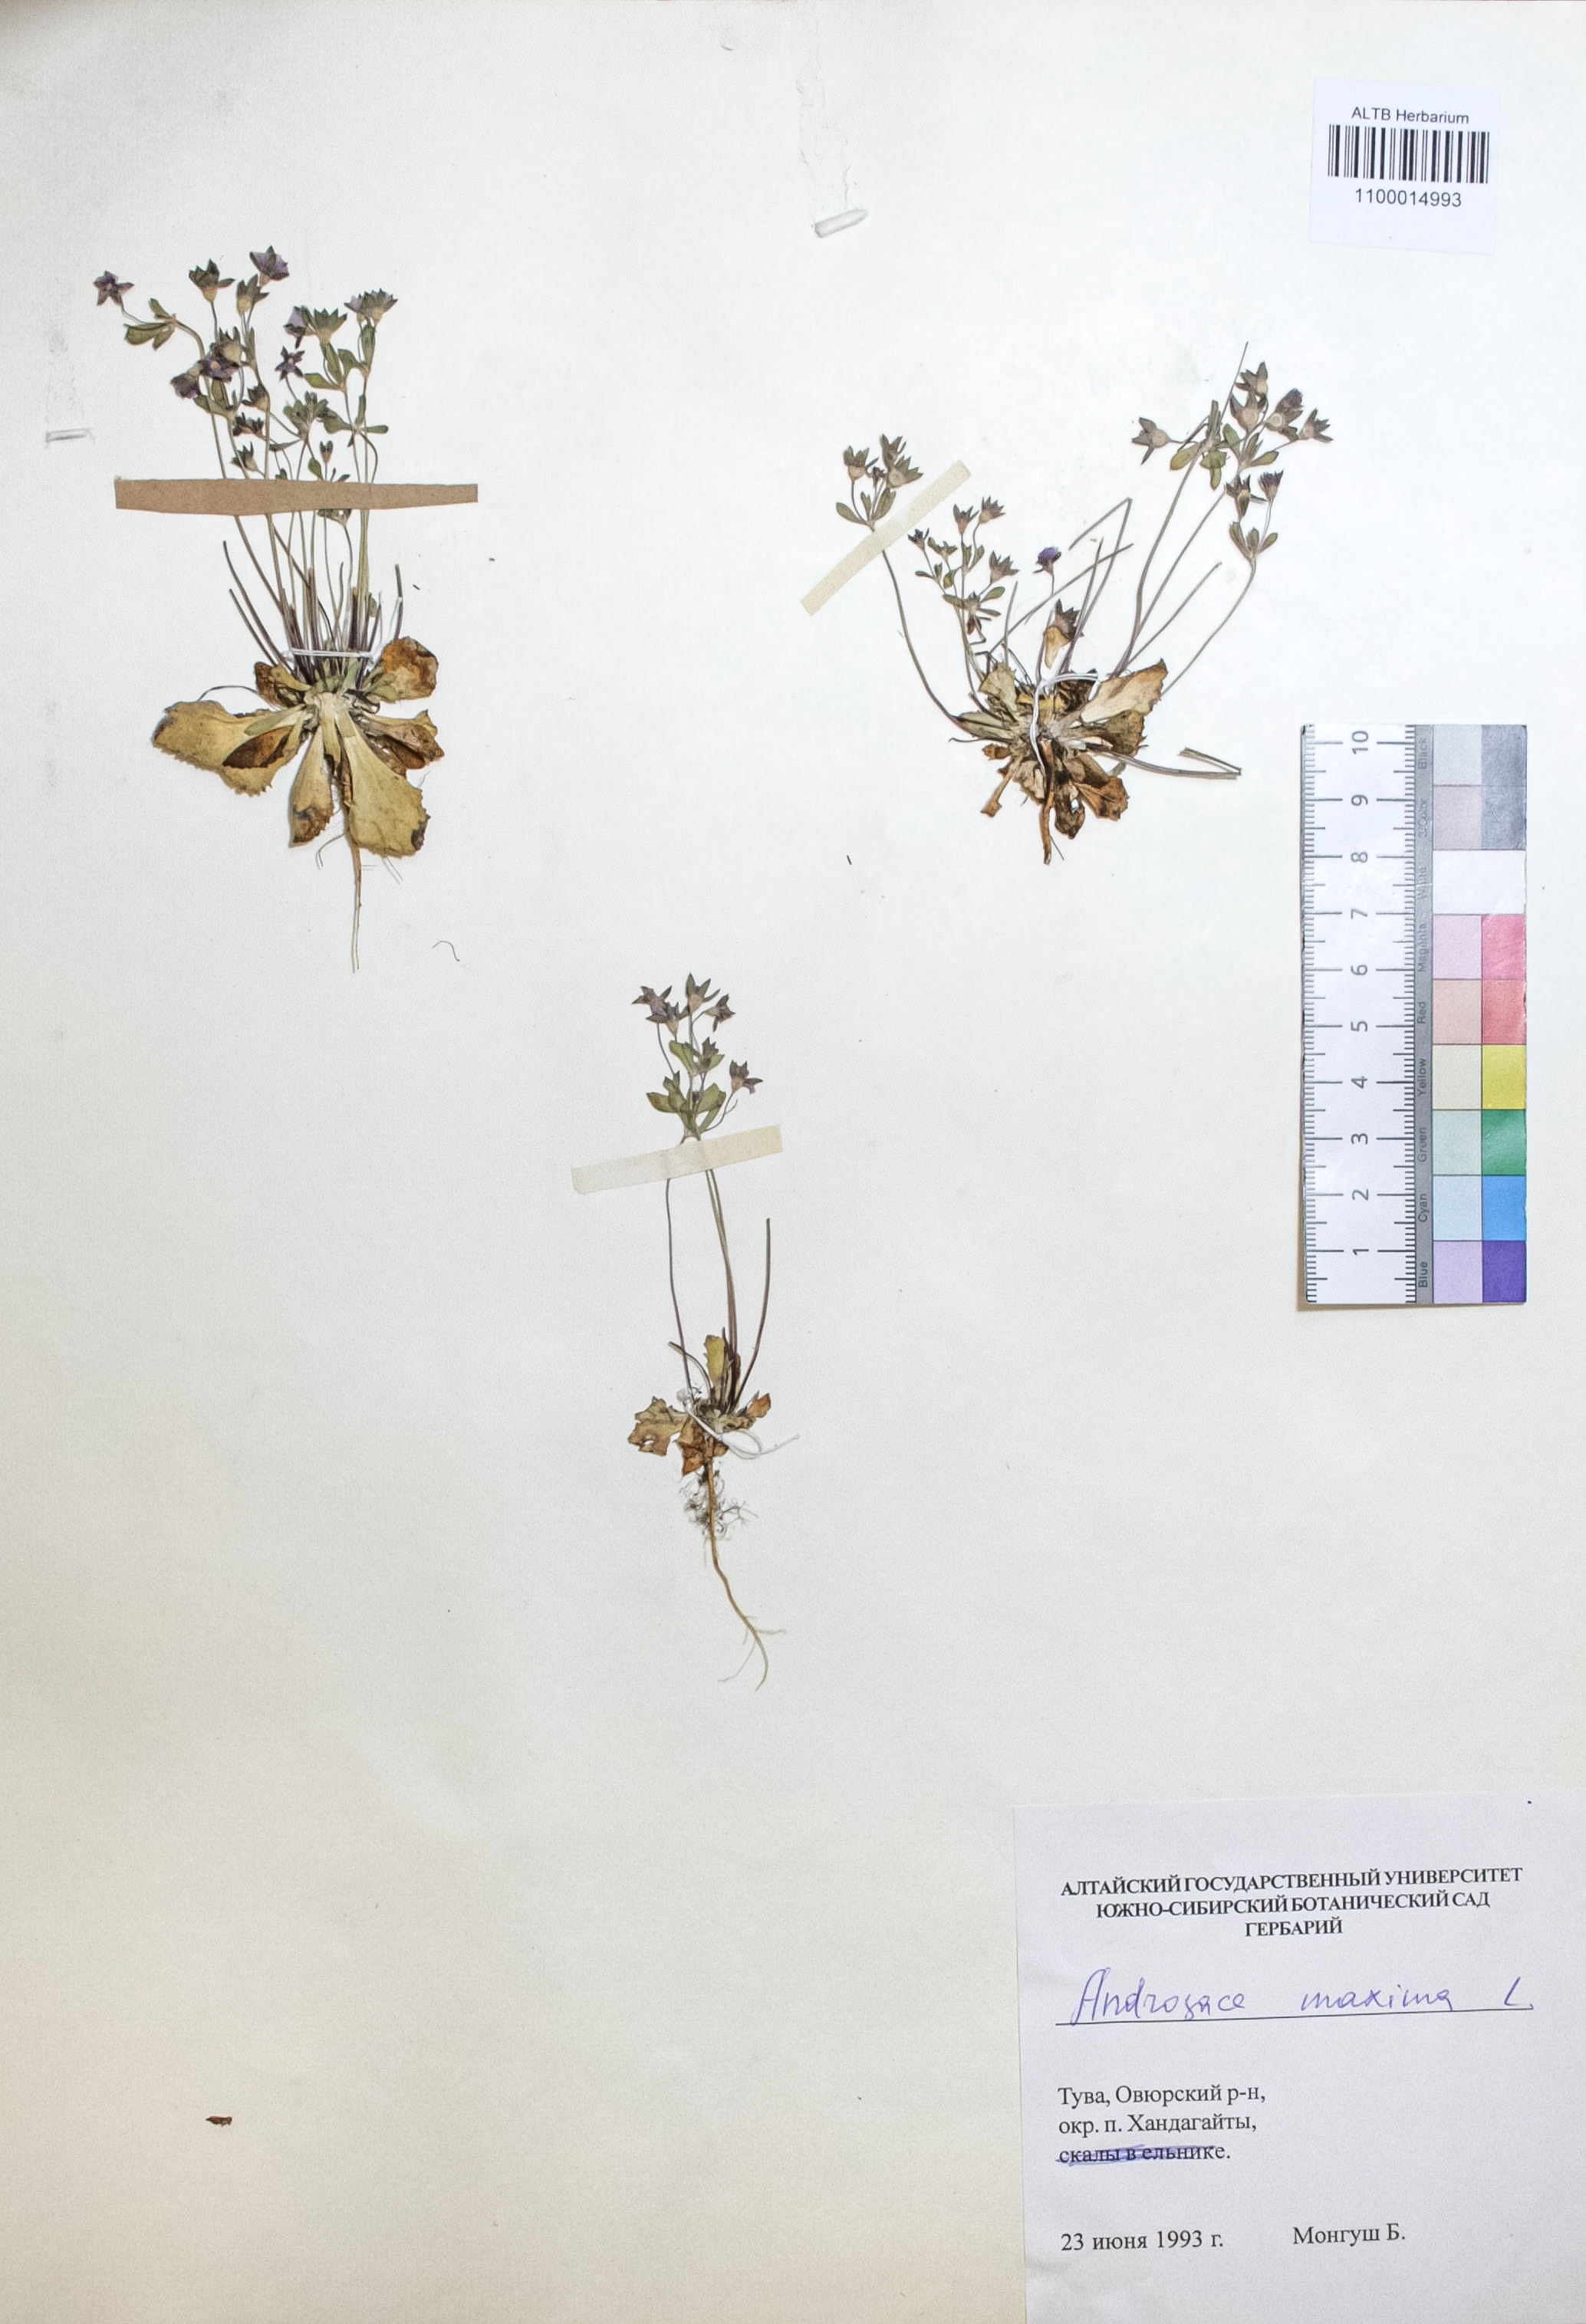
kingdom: Plantae
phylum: Tracheophyta
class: Magnoliopsida
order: Ericales
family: Primulaceae
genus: Androsace
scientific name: Androsace maxima
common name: Annual androsace
